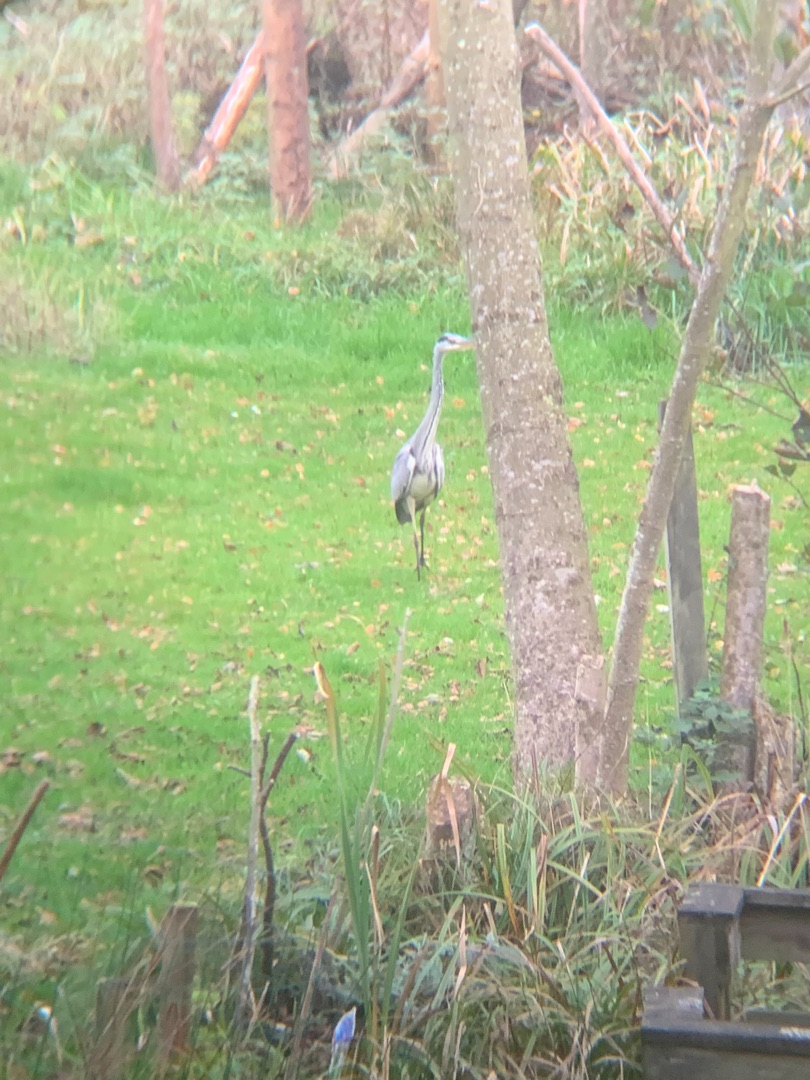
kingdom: Animalia
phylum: Chordata
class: Aves
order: Pelecaniformes
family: Ardeidae
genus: Ardea
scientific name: Ardea cinerea
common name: Fiskehejre
